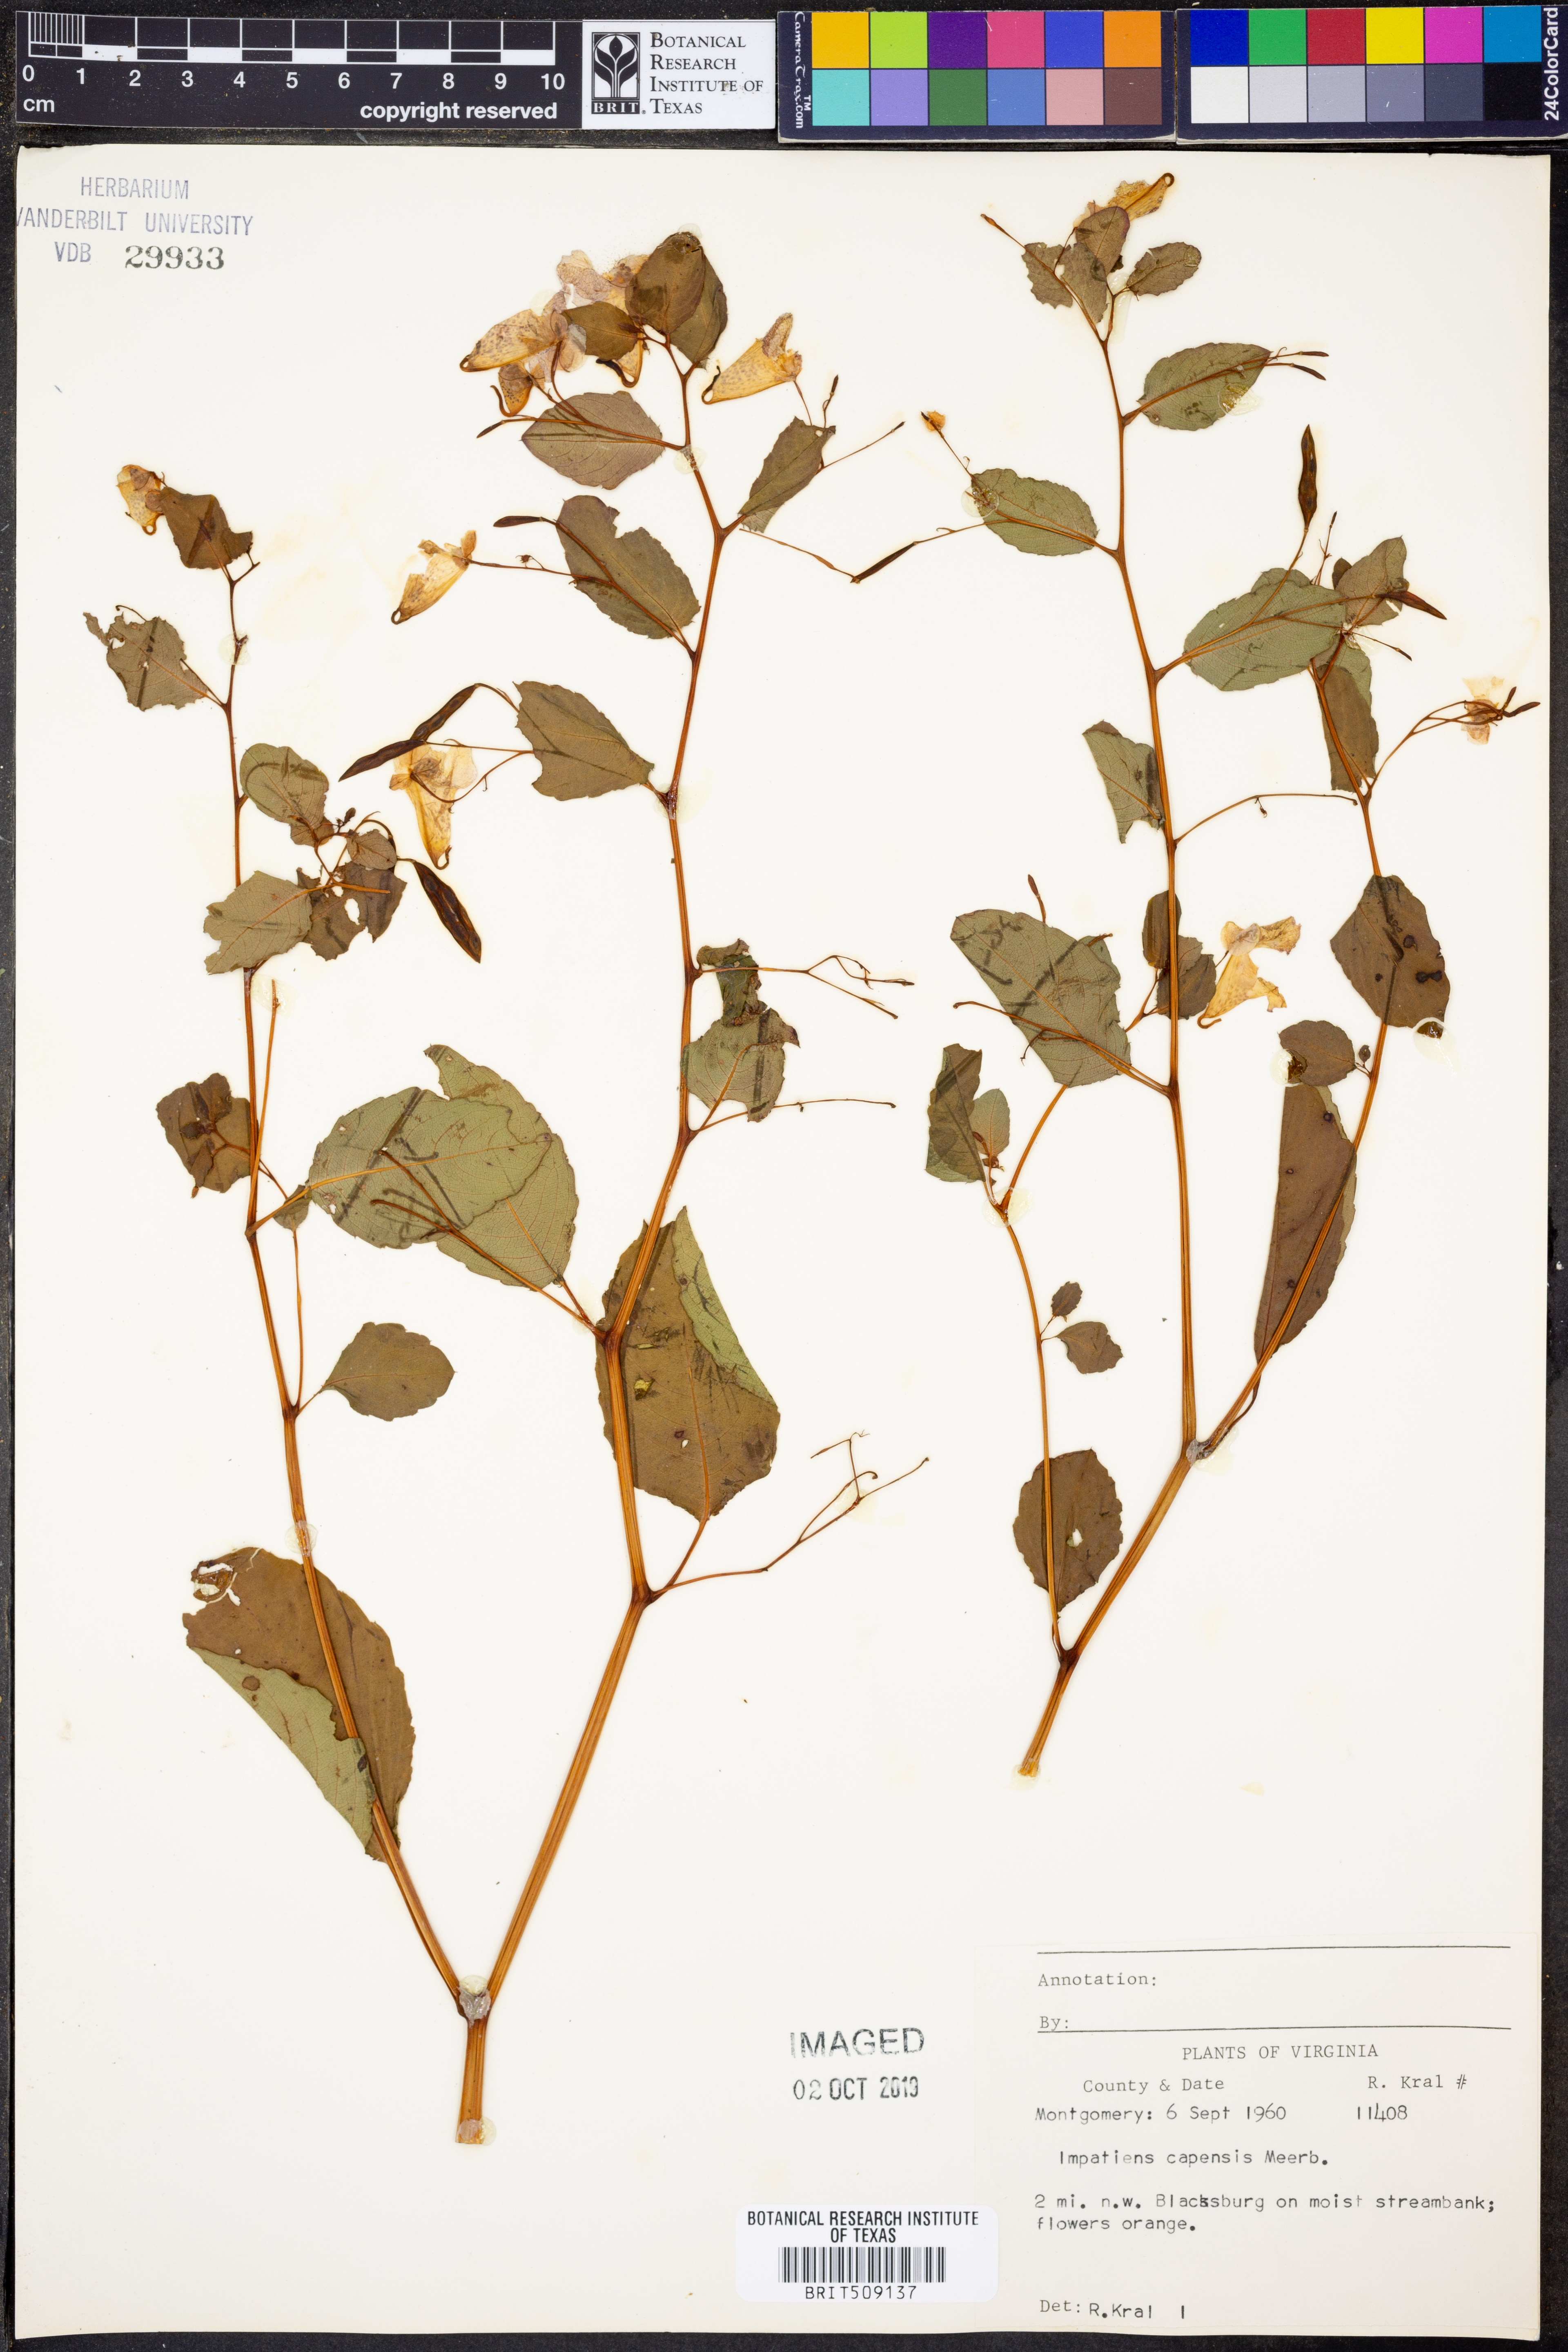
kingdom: Plantae
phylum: Tracheophyta
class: Magnoliopsida
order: Ericales
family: Balsaminaceae
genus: Impatiens
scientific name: Impatiens capensis
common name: Orange balsam
